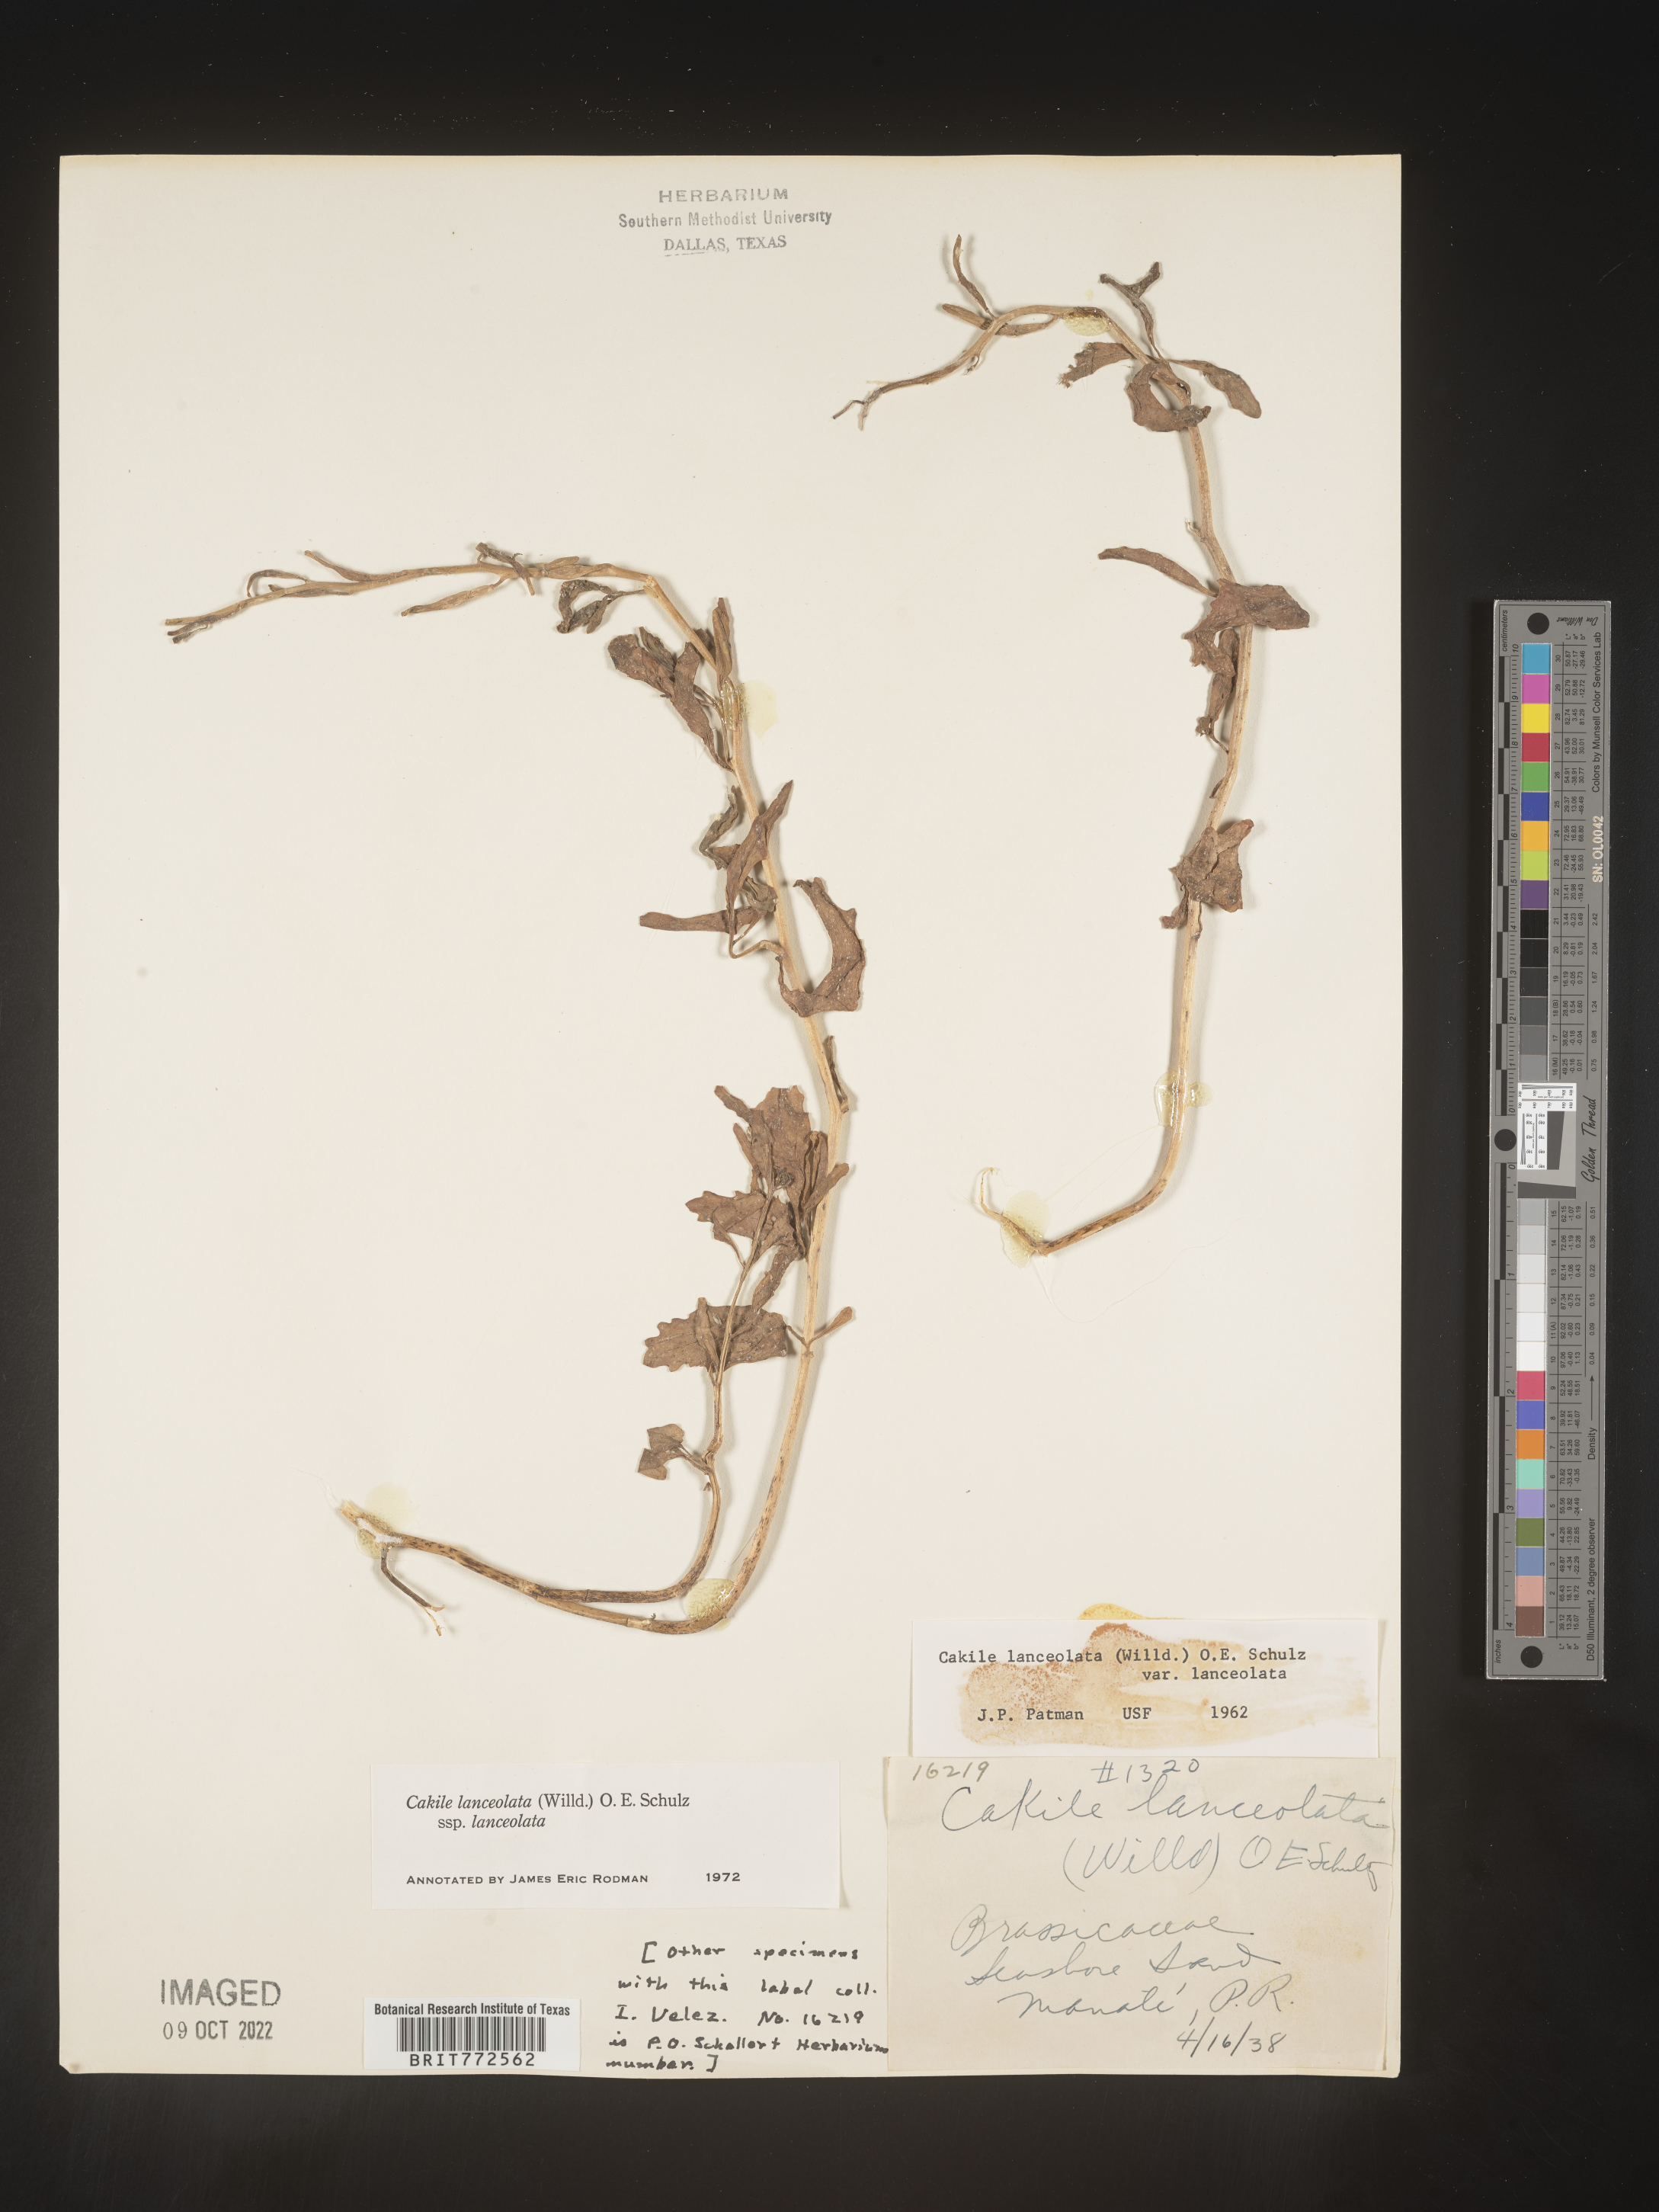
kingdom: Plantae
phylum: Tracheophyta
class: Magnoliopsida
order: Brassicales
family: Brassicaceae
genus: Cakile
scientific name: Cakile
